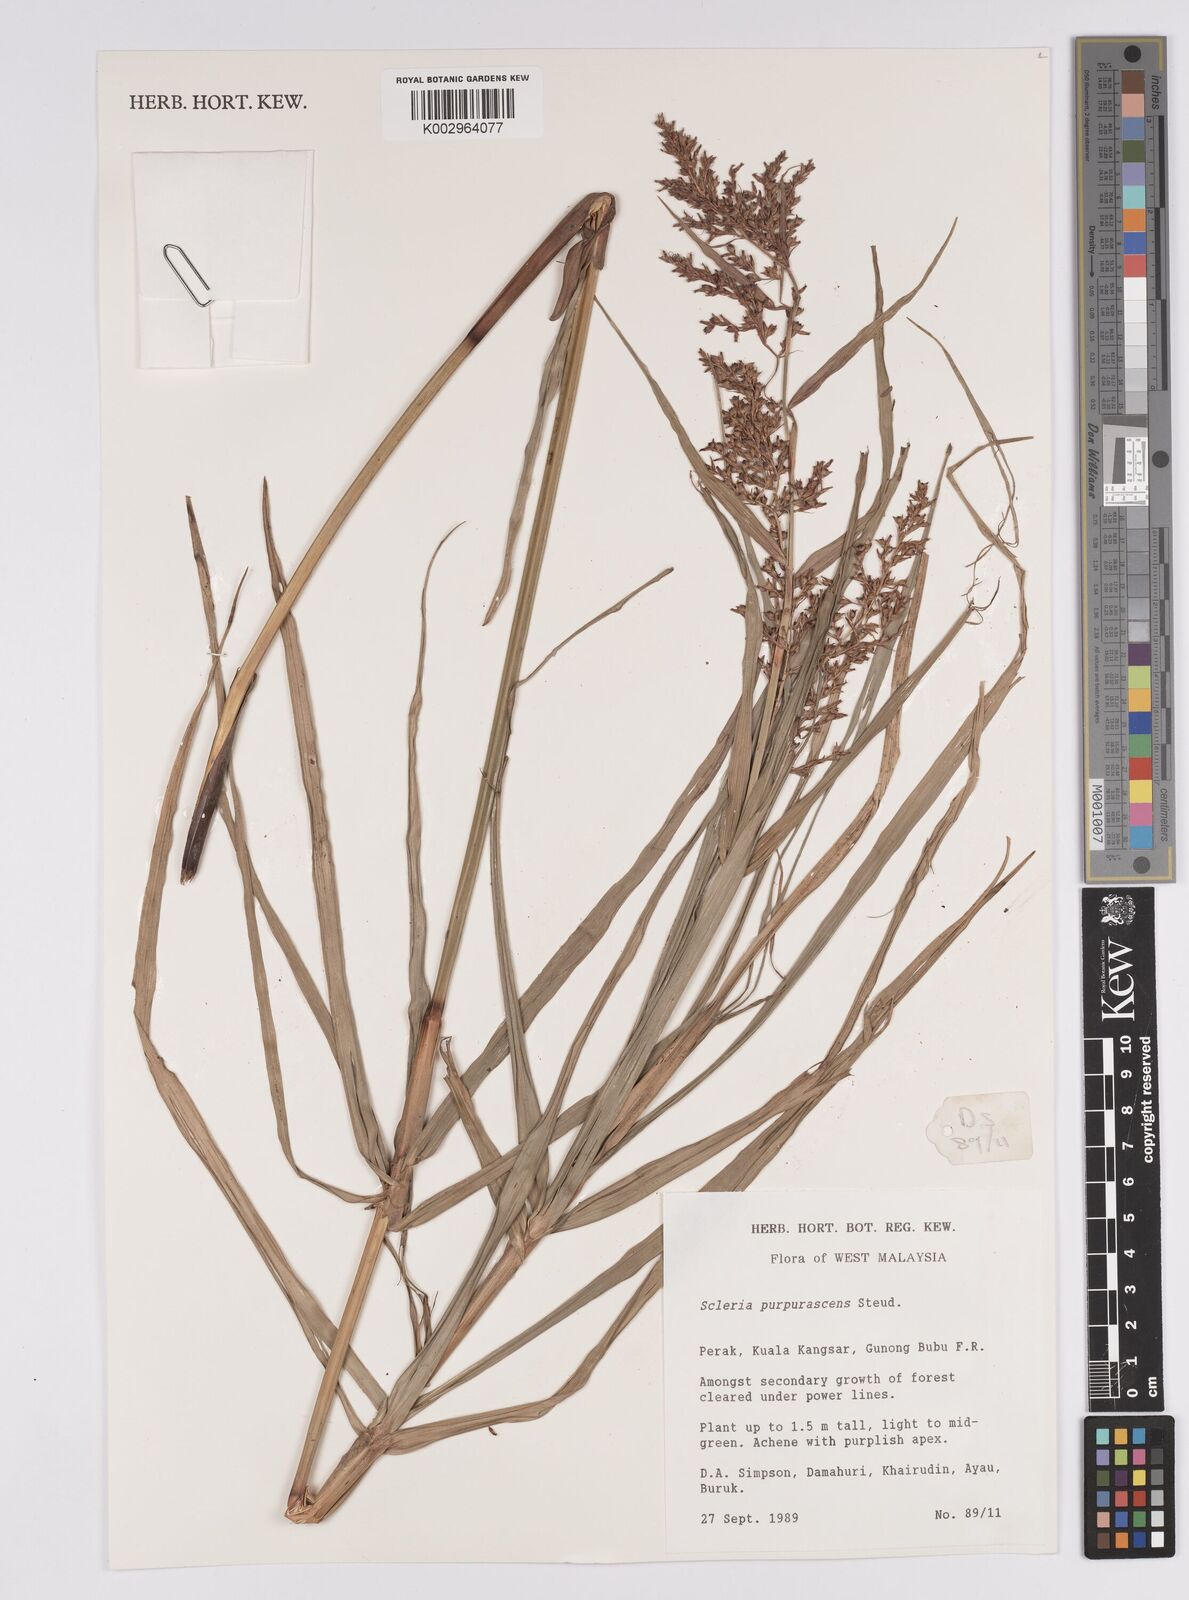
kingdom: Plantae
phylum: Tracheophyta
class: Liliopsida
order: Poales
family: Cyperaceae
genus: Scleria
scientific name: Scleria purpurascens
